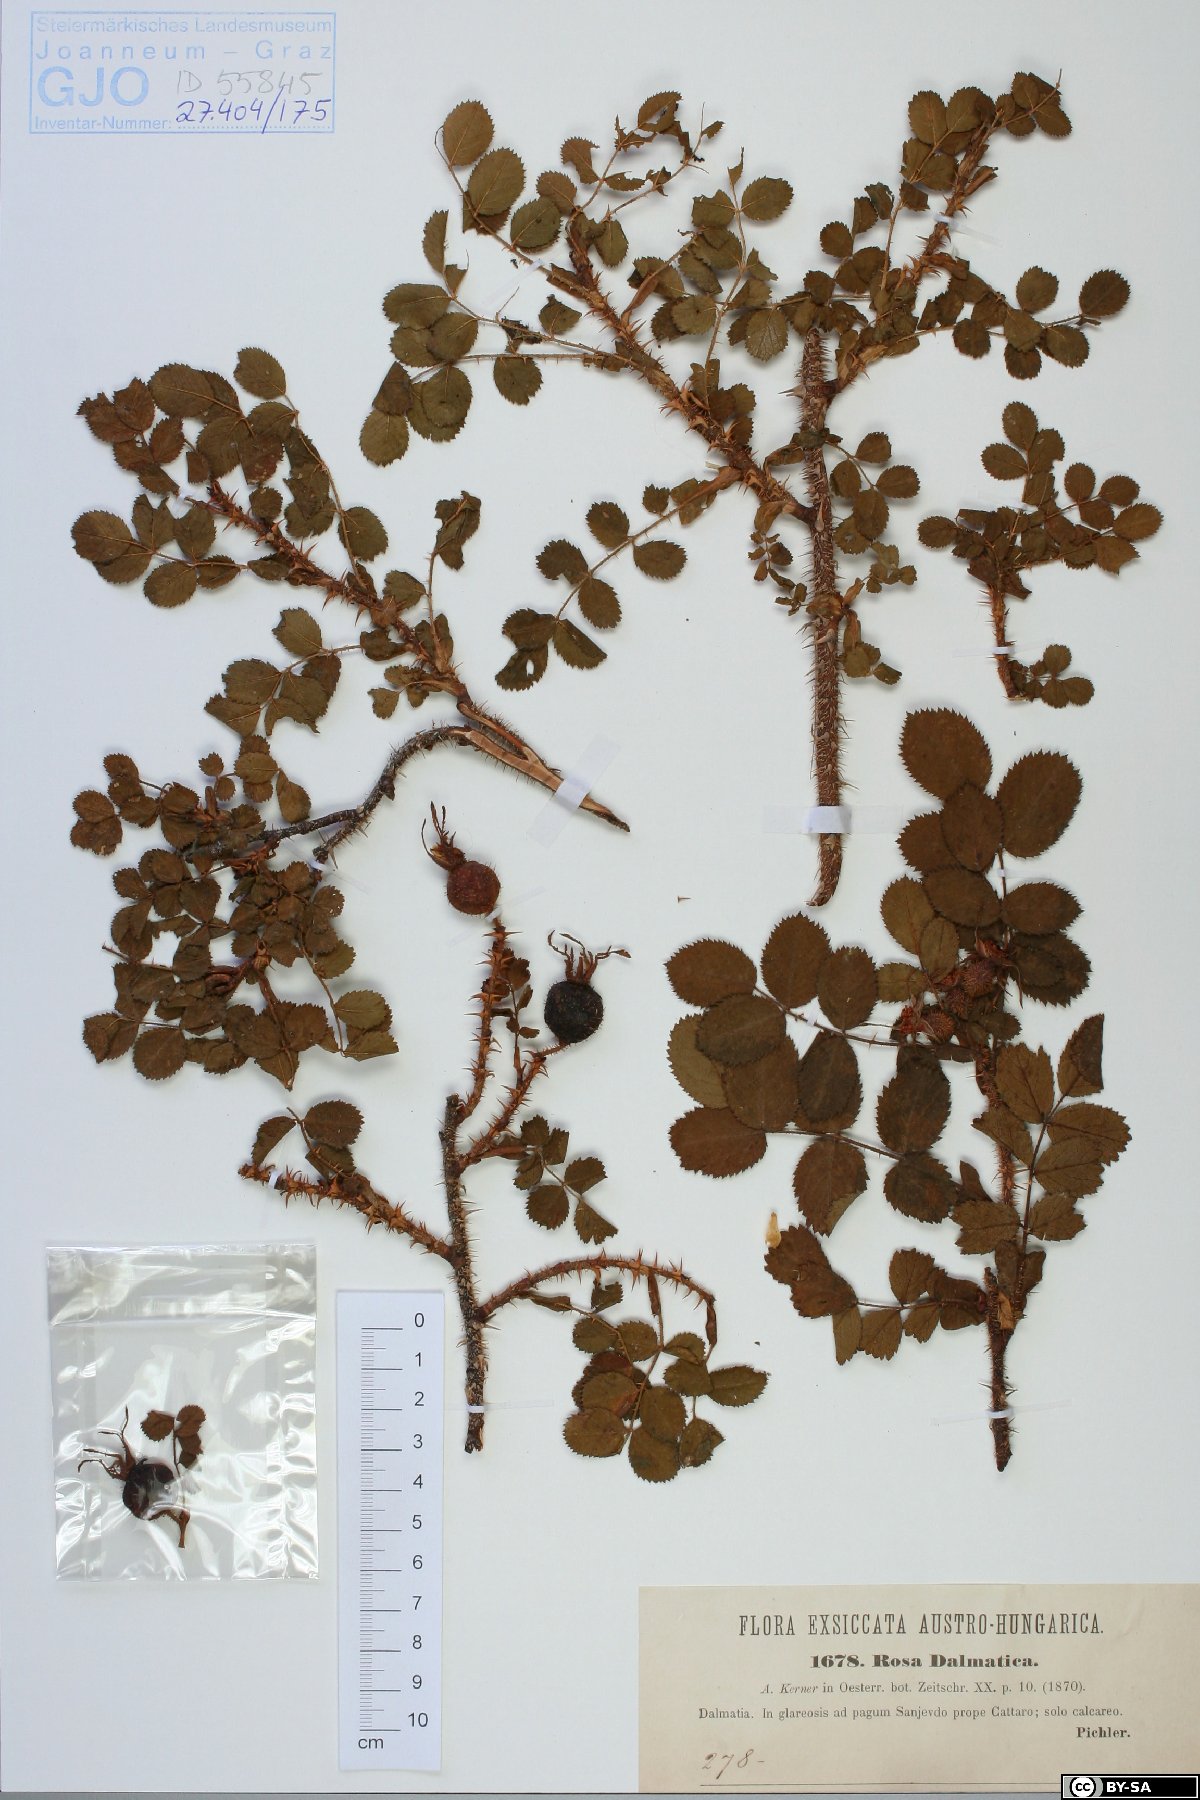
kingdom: Plantae
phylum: Tracheophyta
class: Magnoliopsida
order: Rosales
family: Rosaceae
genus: Rosa
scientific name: Rosa pulverulenta
